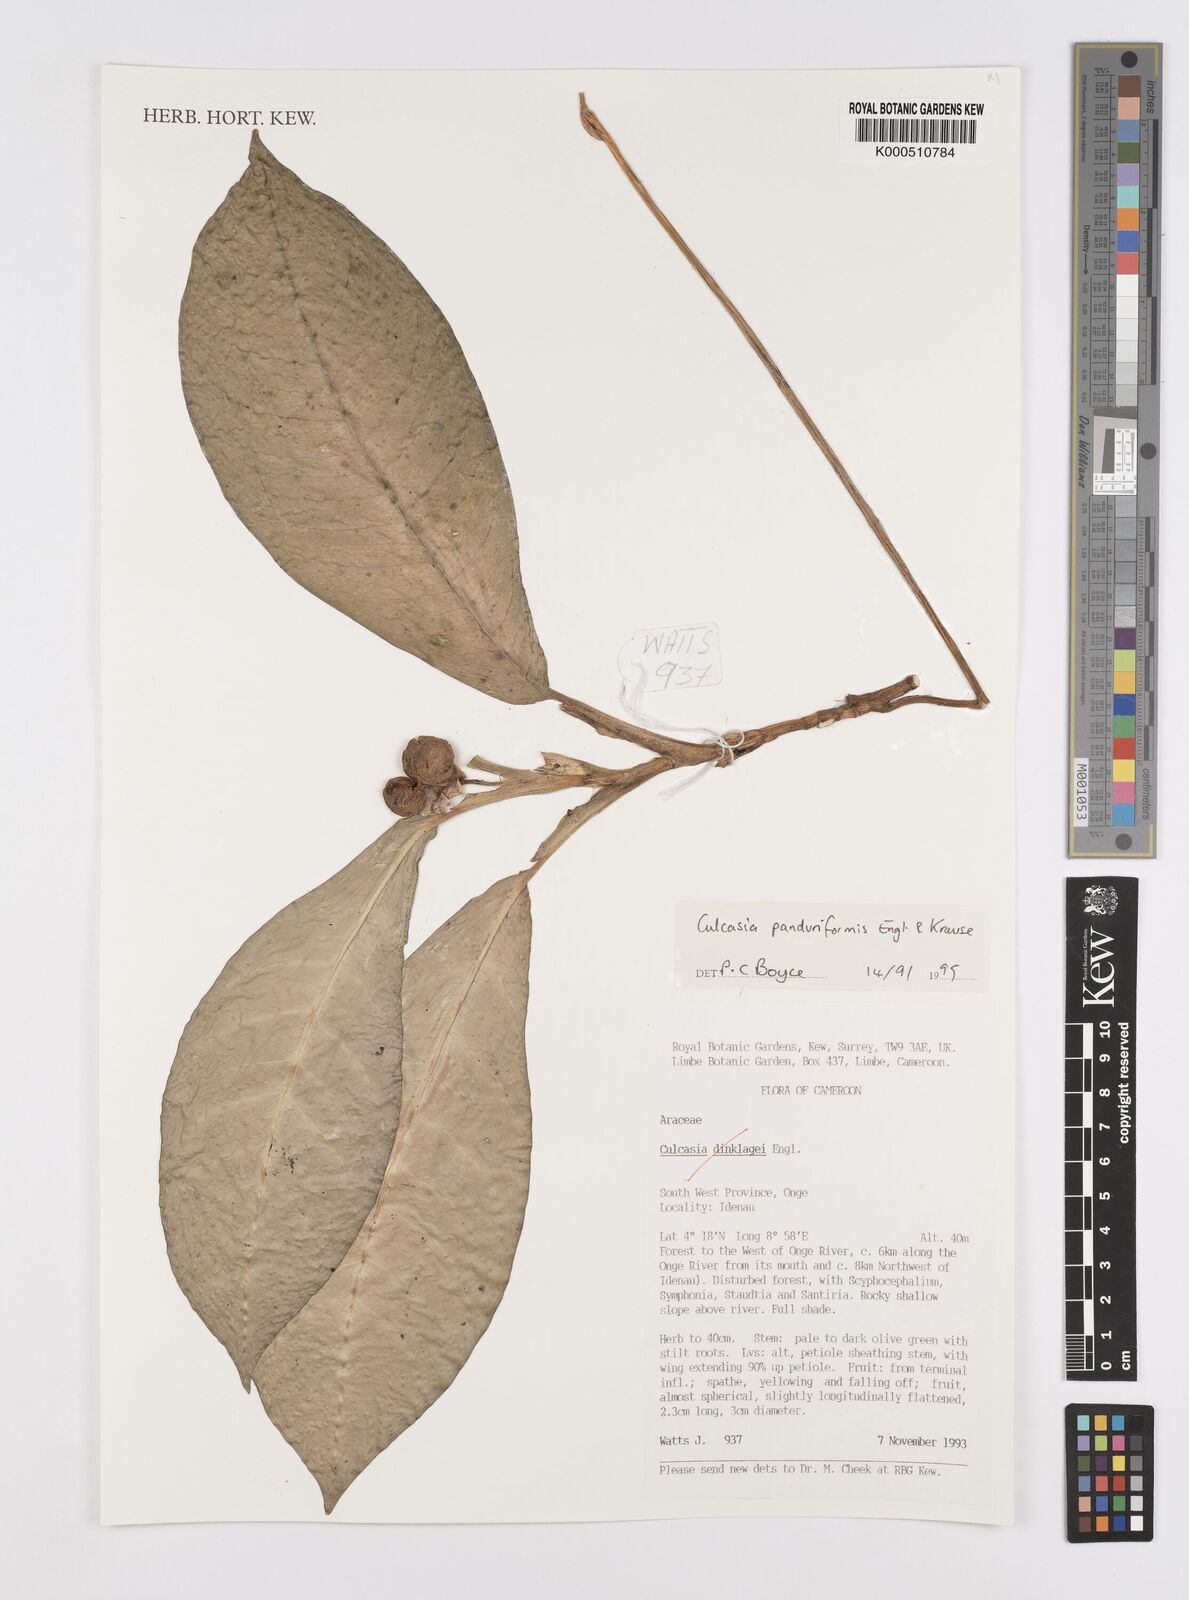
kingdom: Plantae
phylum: Tracheophyta
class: Liliopsida
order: Alismatales
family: Araceae
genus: Culcasia
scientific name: Culcasia panduriformis
